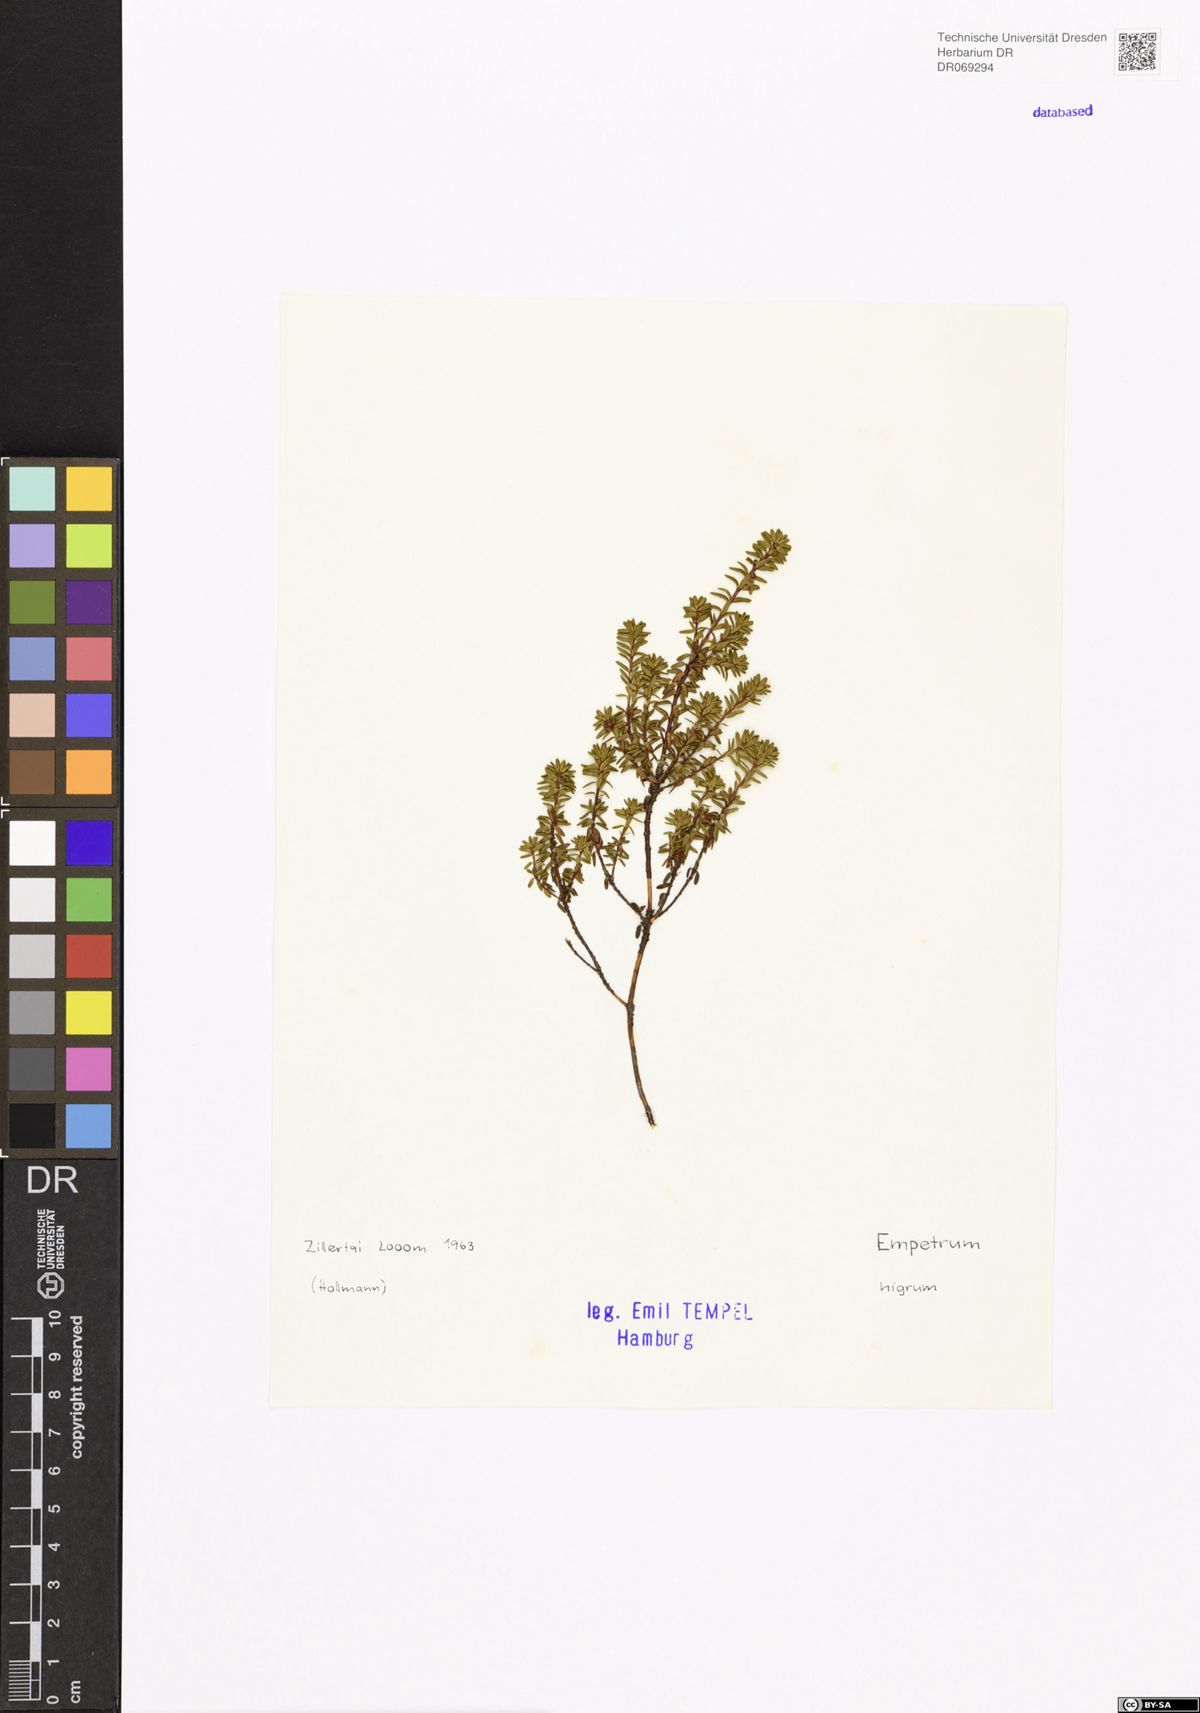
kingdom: Plantae
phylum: Tracheophyta
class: Magnoliopsida
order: Ericales
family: Ericaceae
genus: Empetrum
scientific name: Empetrum nigrum
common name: Black crowberry
